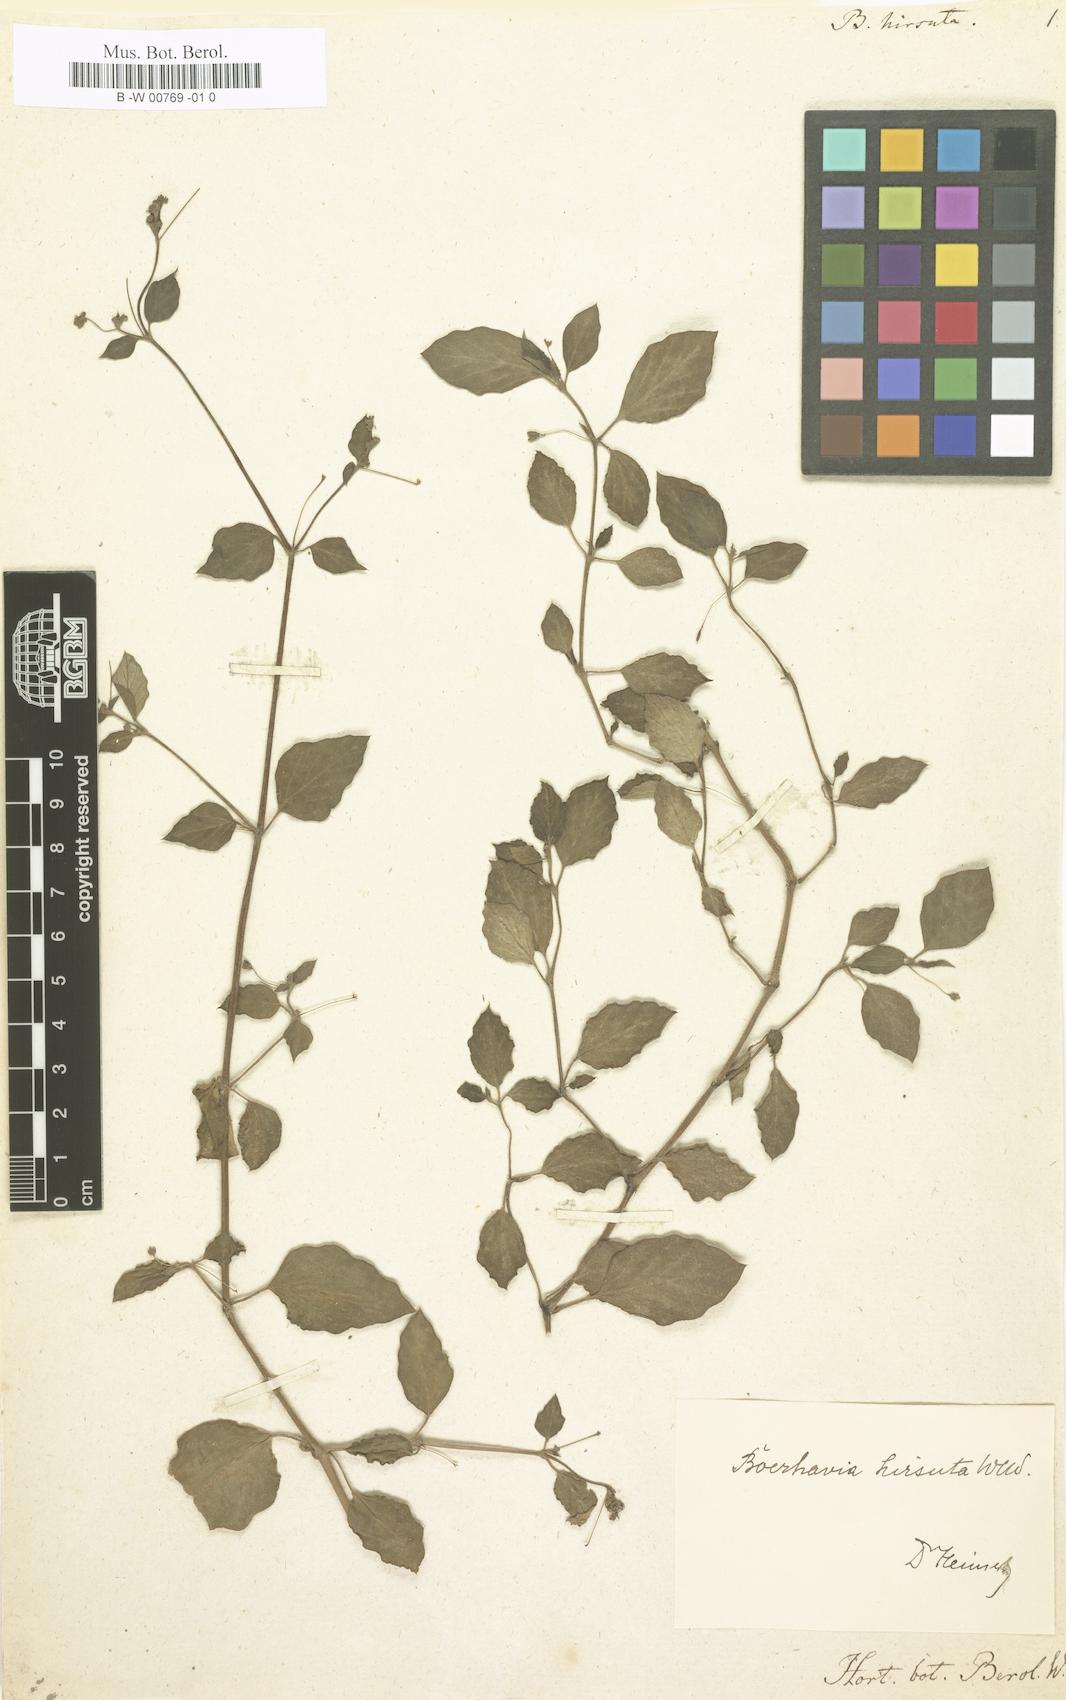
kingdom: Plantae
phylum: Tracheophyta
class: Magnoliopsida
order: Caryophyllales
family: Nyctaginaceae
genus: Boerhavia
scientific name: Boerhavia Boerhaavia hirsuta
